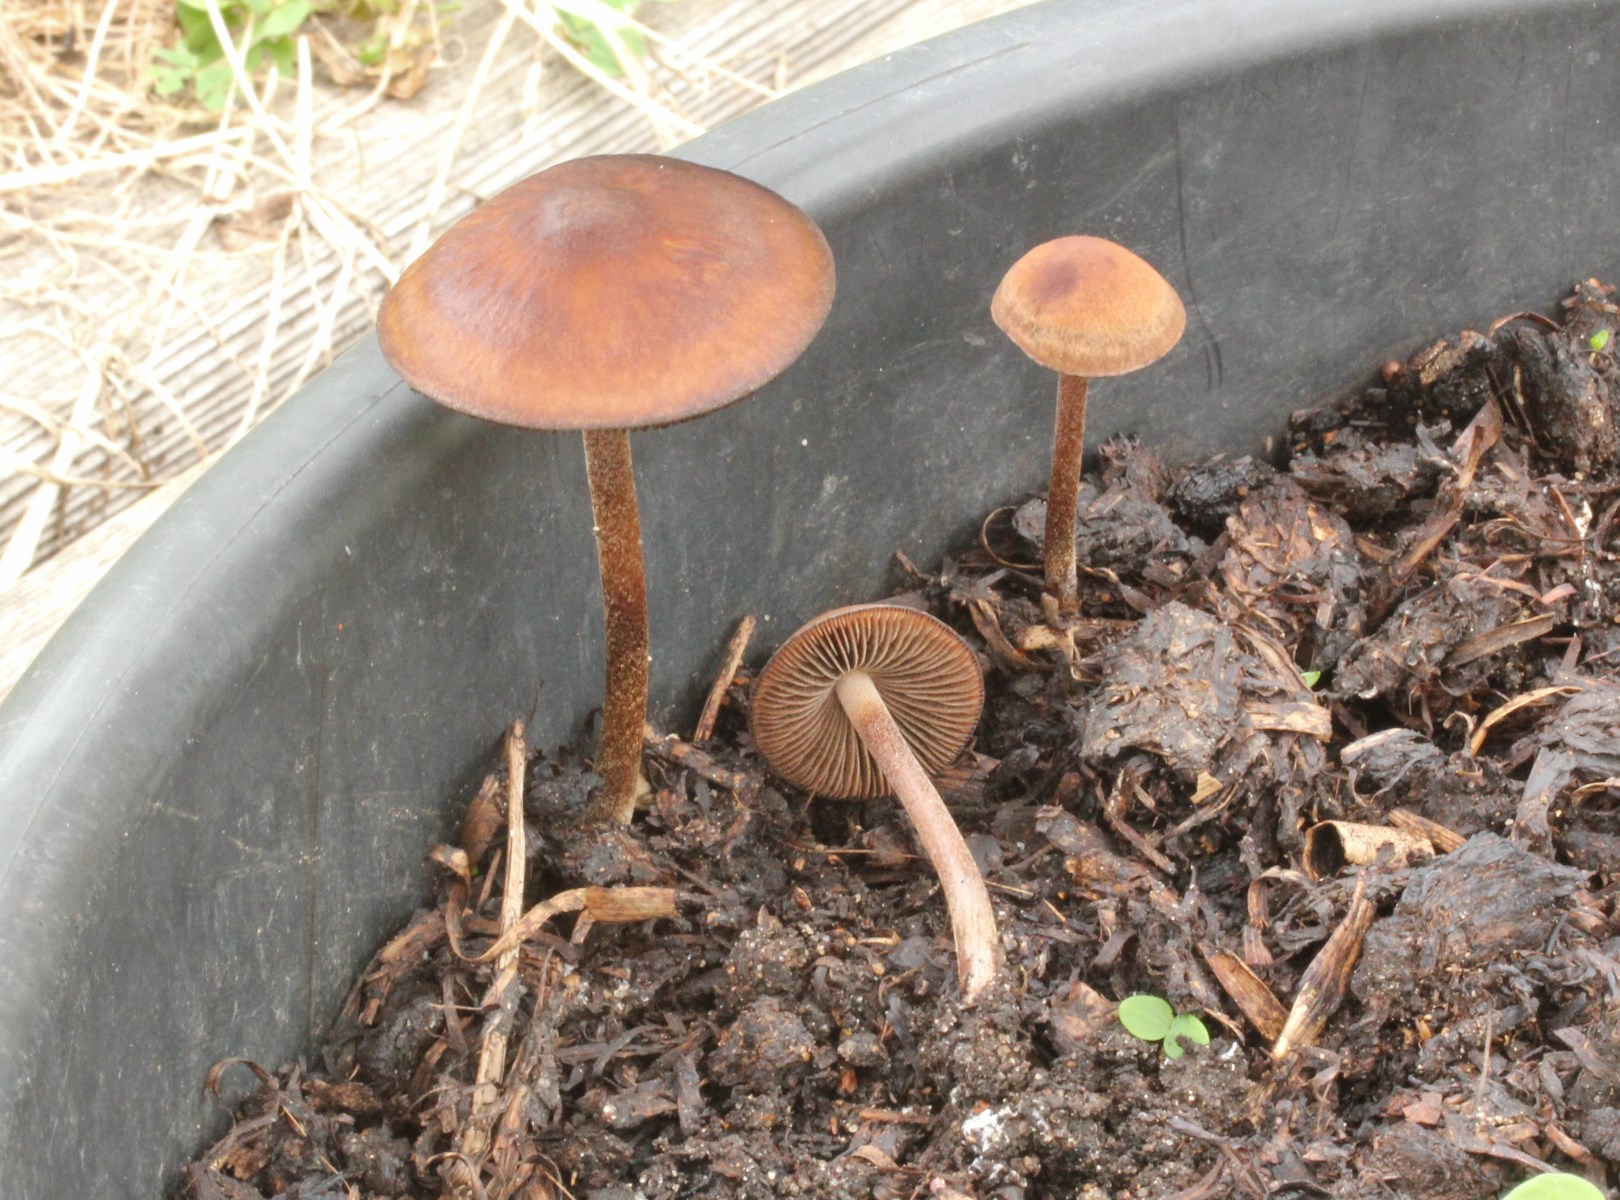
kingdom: Fungi
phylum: Basidiomycota
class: Agaricomycetes
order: Agaricales
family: Bolbitiaceae
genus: Panaeolus
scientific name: Panaeolus cinctulus
